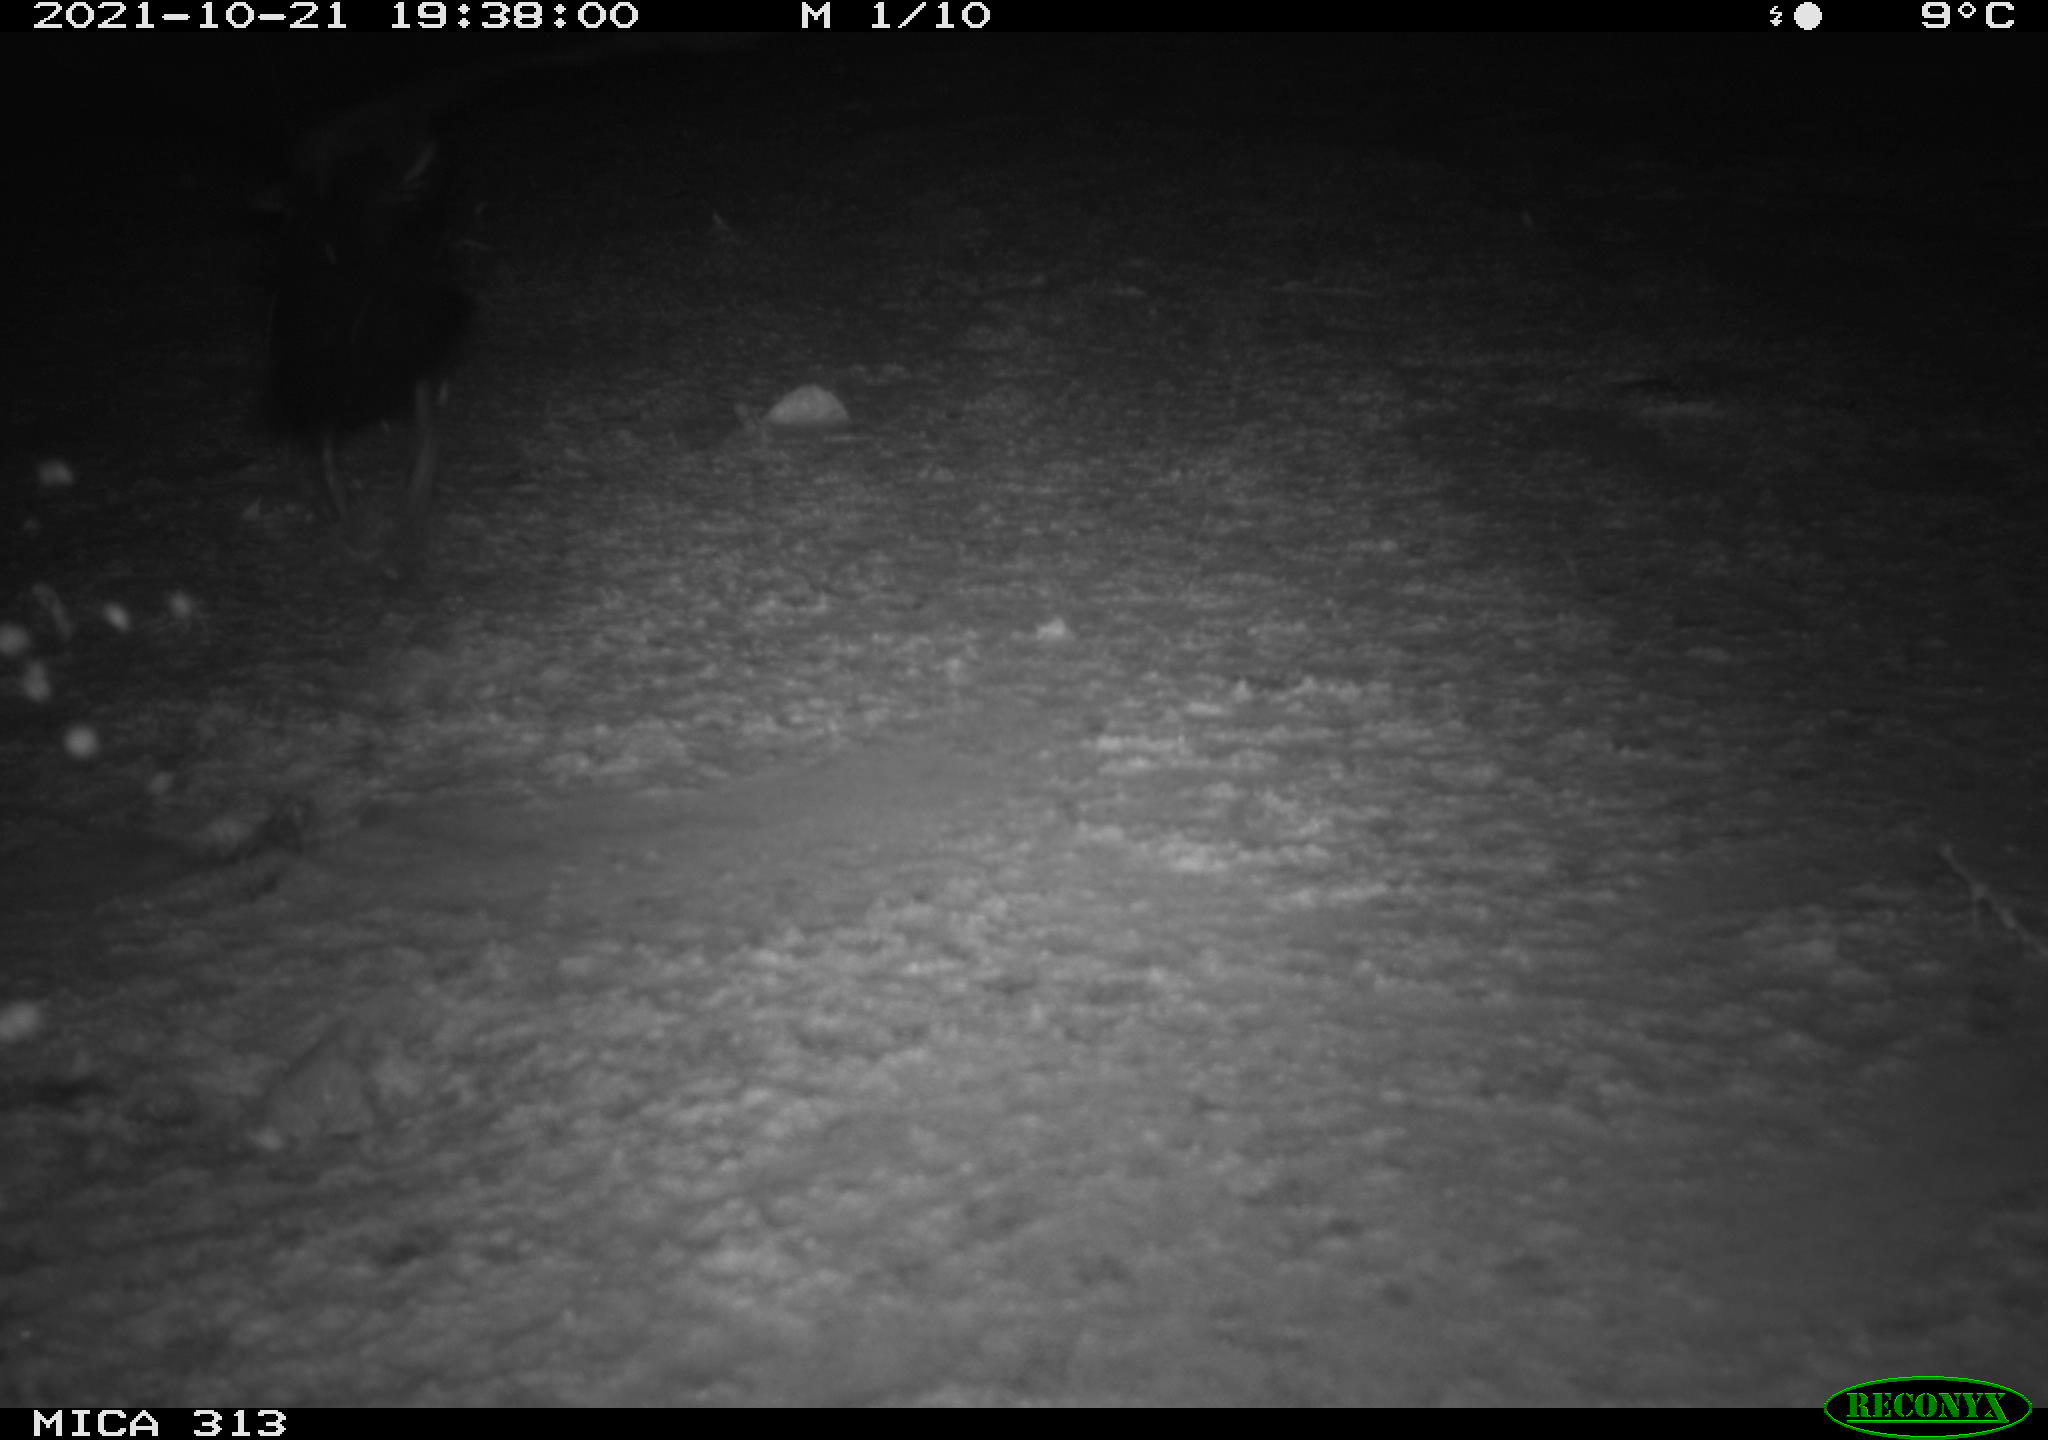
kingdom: Animalia
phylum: Chordata
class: Aves
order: Gruiformes
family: Rallidae
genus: Gallinula
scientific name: Gallinula chloropus
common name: Common moorhen
